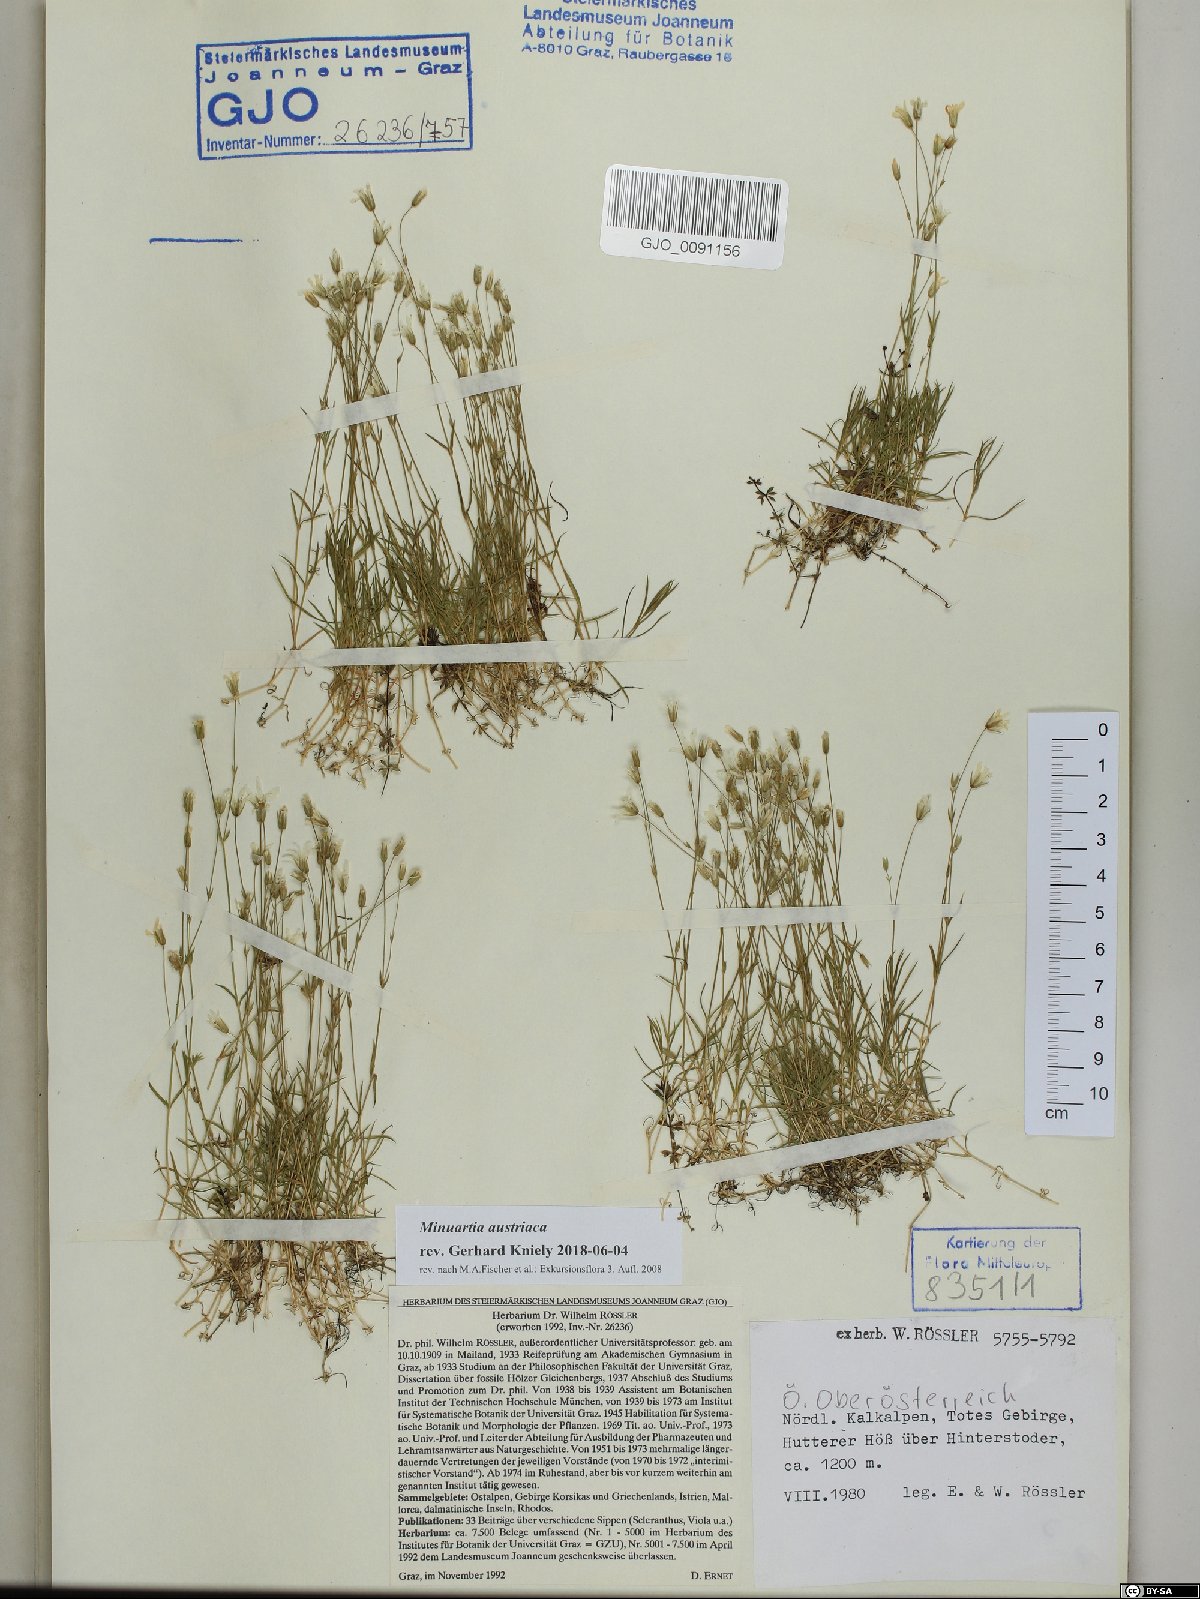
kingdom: Plantae
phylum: Tracheophyta
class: Magnoliopsida
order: Caryophyllales
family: Caryophyllaceae
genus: Sabulina
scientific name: Sabulina austriaca
